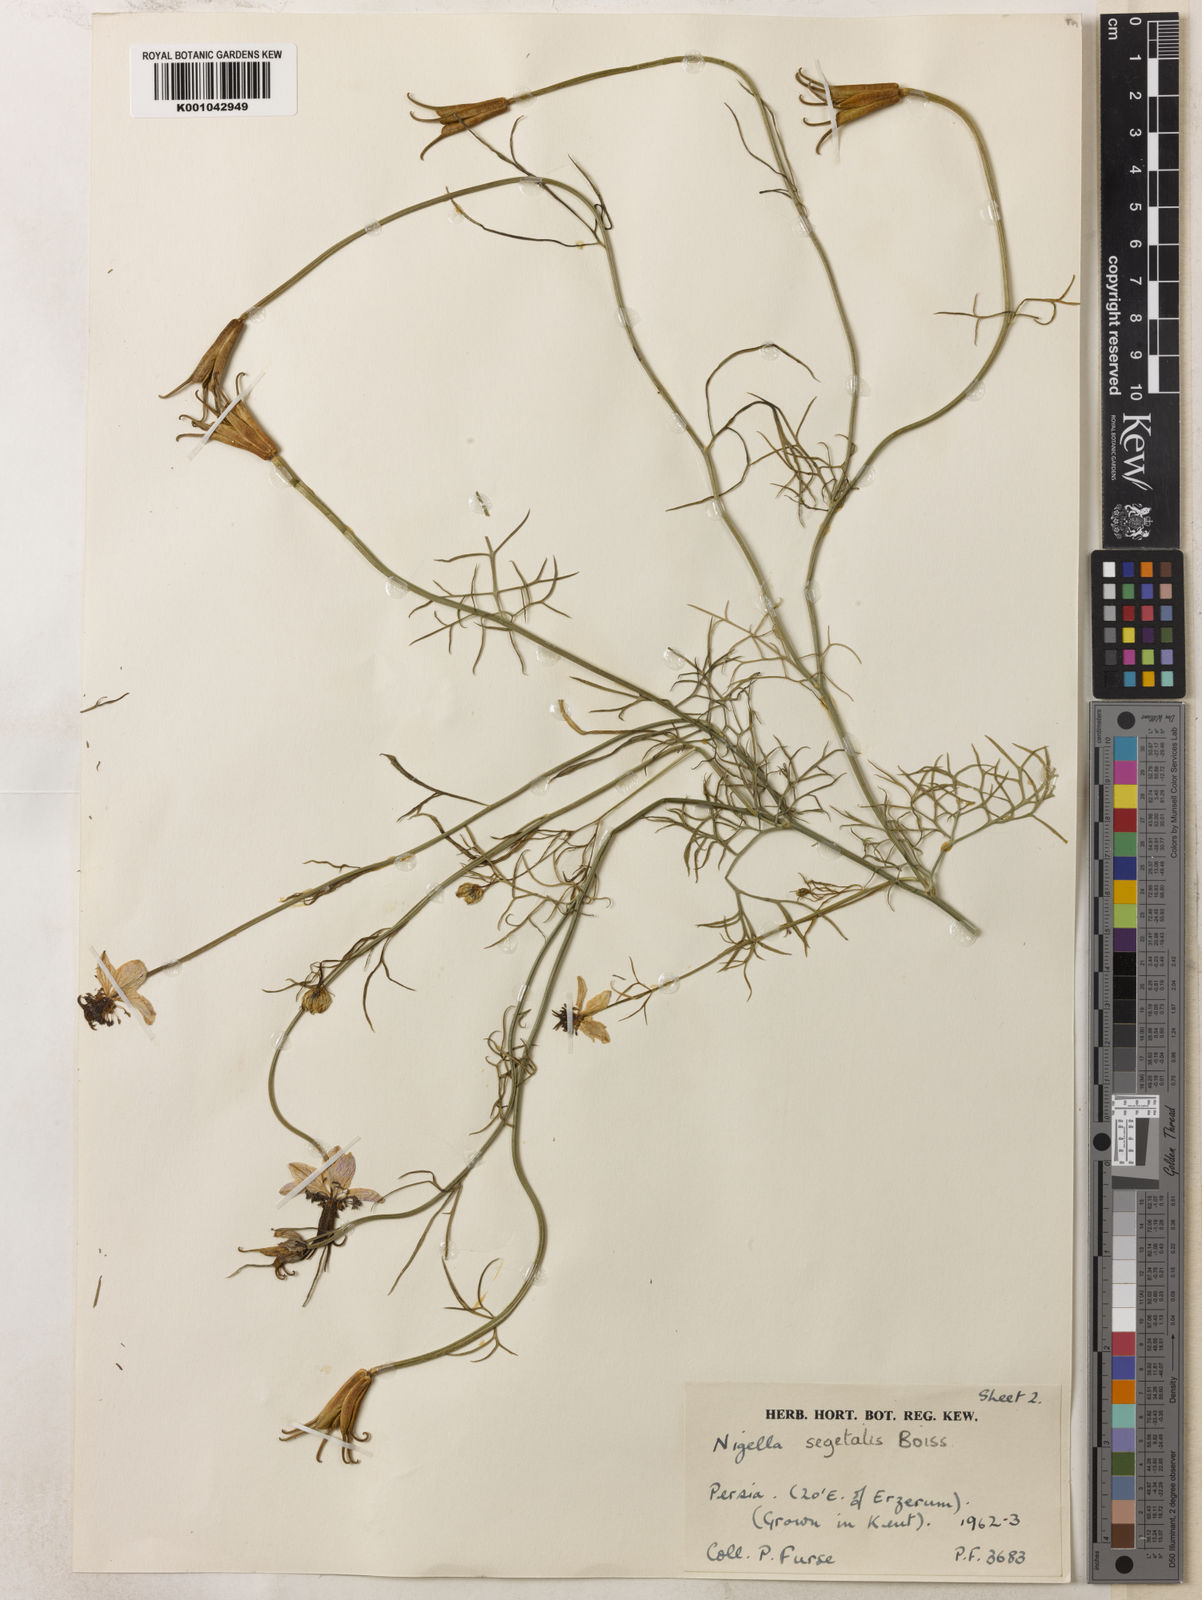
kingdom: Plantae
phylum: Tracheophyta
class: Magnoliopsida
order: Ranunculales
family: Ranunculaceae
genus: Nigella
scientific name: Nigella segetalis
